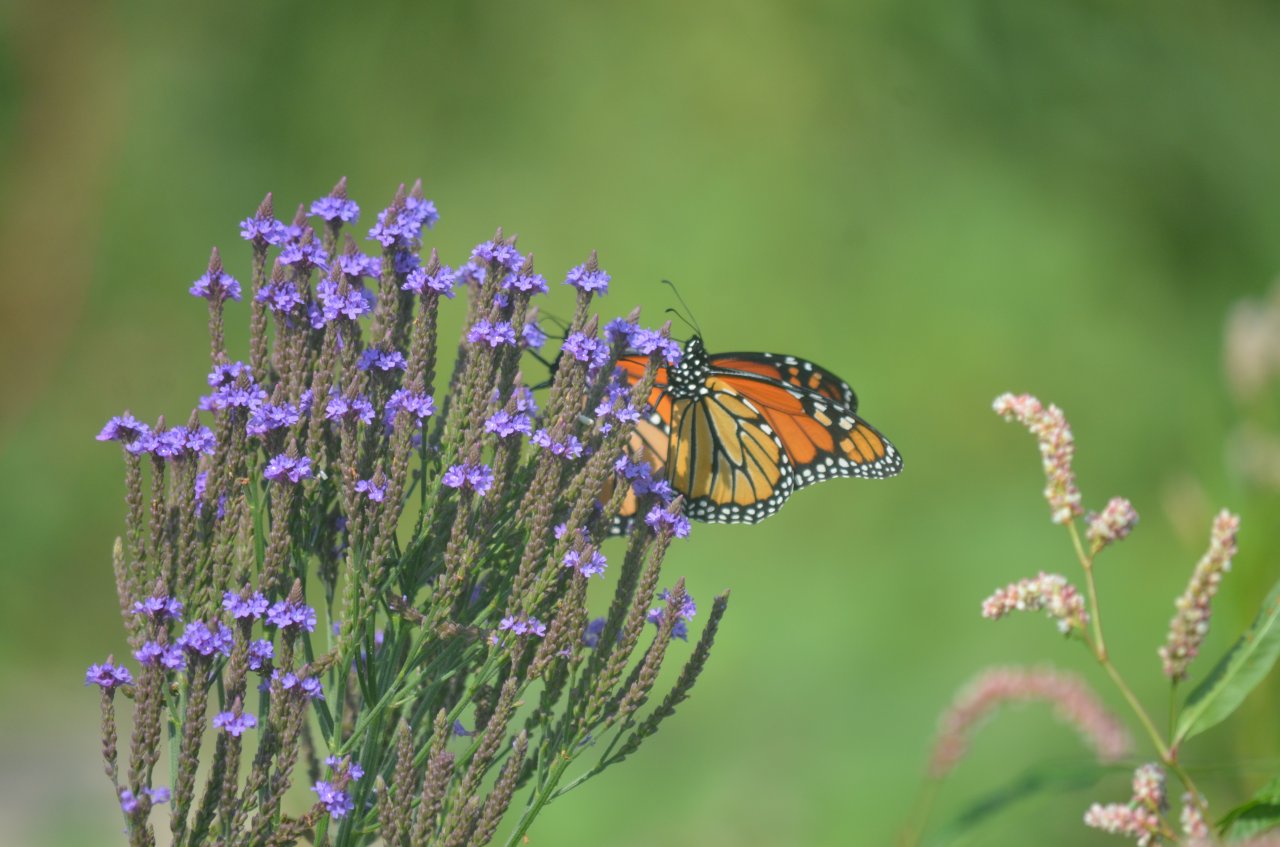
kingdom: Animalia
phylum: Arthropoda
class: Insecta
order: Lepidoptera
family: Nymphalidae
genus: Danaus
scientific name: Danaus plexippus
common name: Monarch
